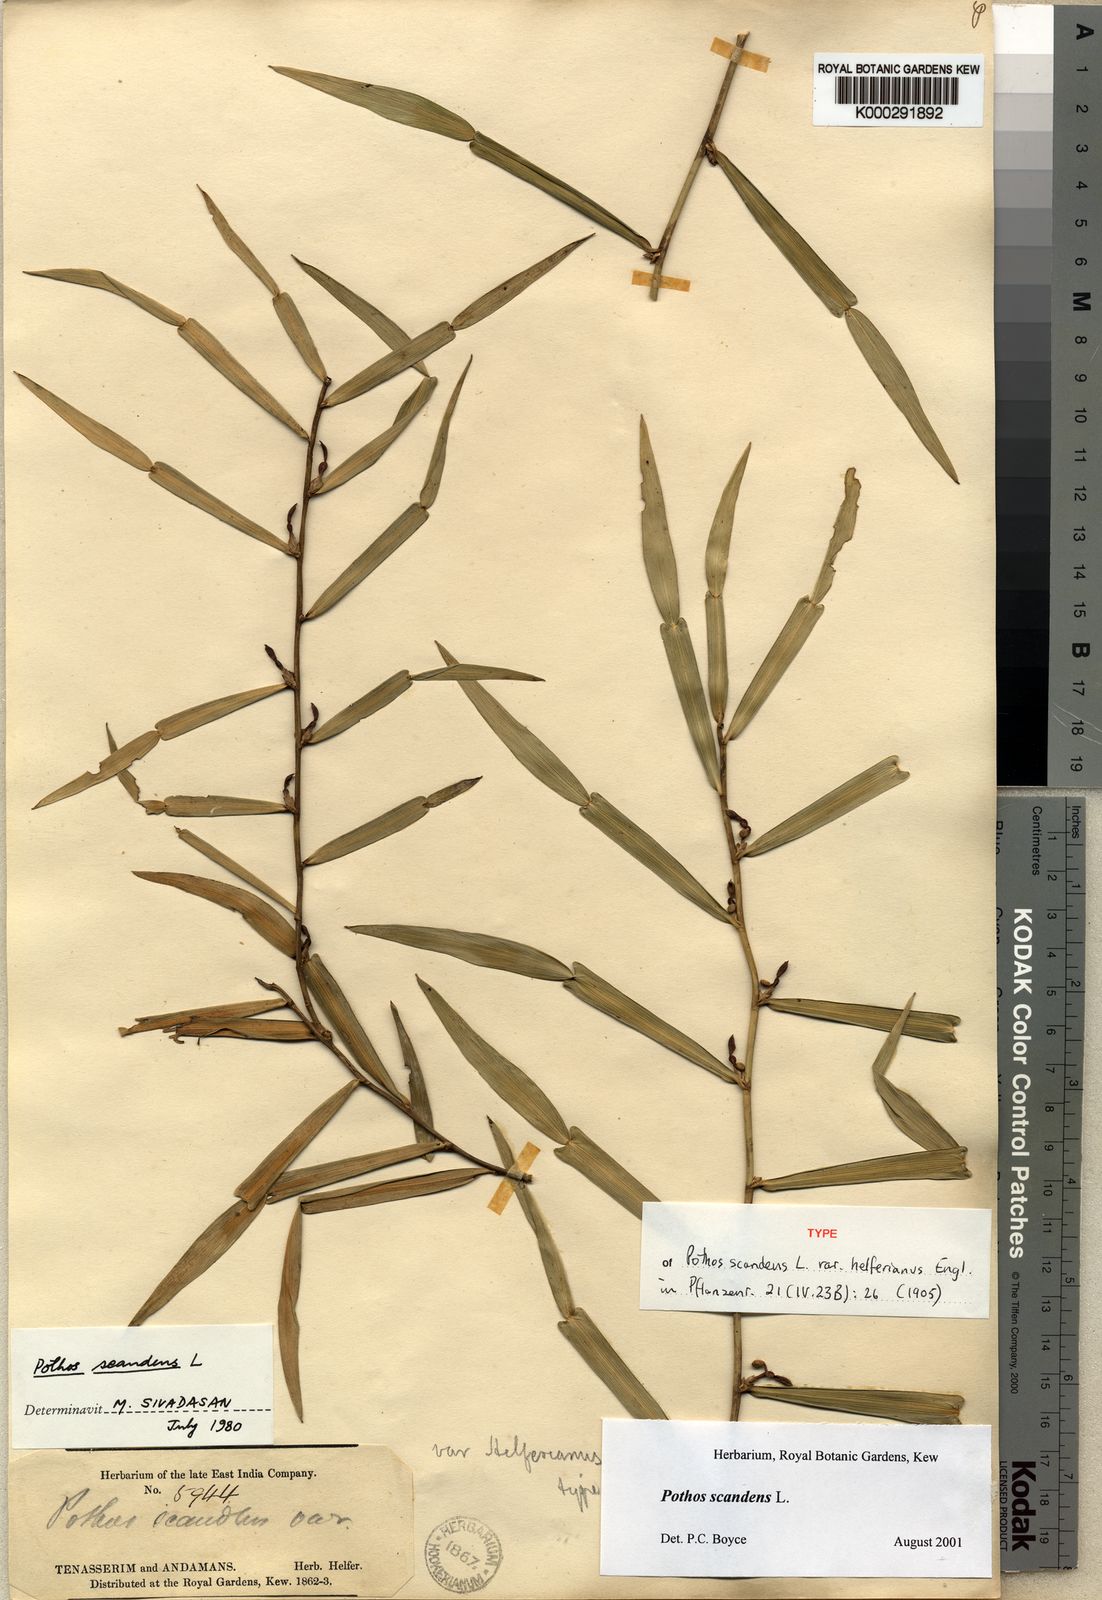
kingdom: Plantae
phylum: Tracheophyta
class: Liliopsida
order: Alismatales
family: Araceae
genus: Pothos
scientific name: Pothos scandens
